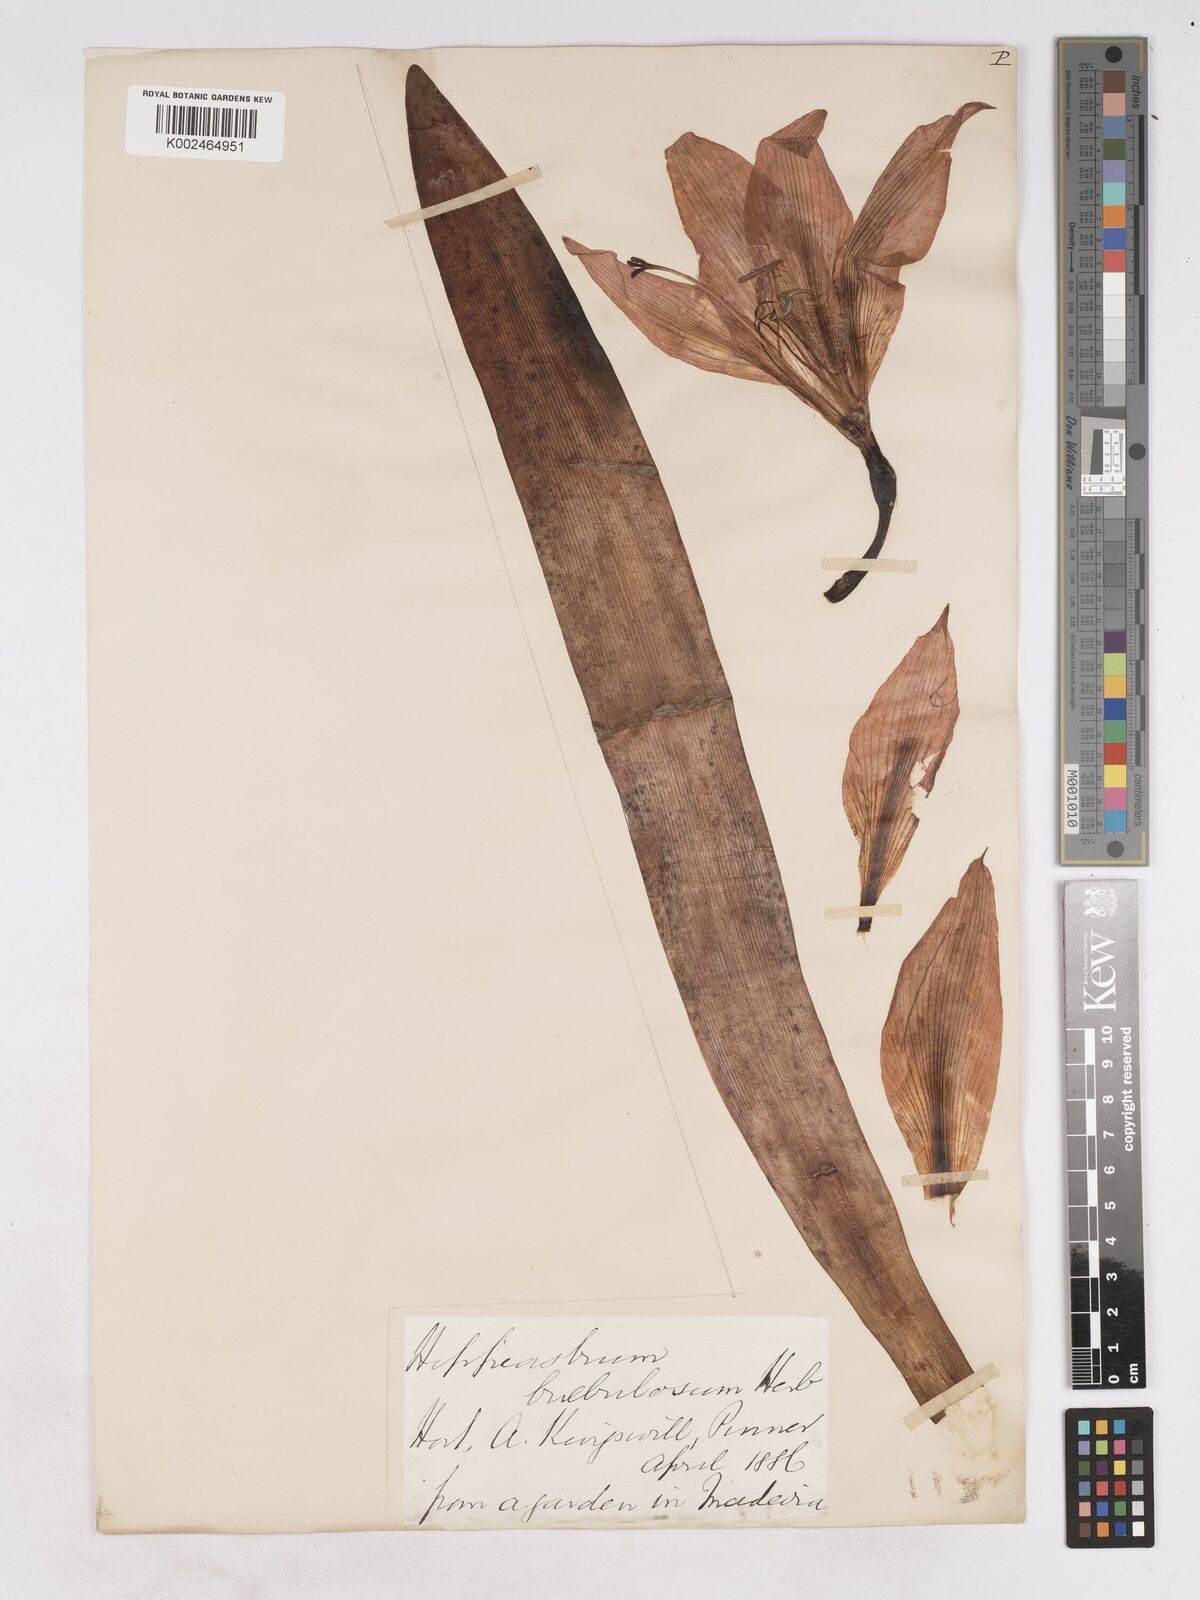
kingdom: Plantae
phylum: Tracheophyta
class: Liliopsida
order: Asparagales
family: Amaryllidaceae
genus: Hippeastrum
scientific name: Hippeastrum striatum
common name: Striped barbados lily
